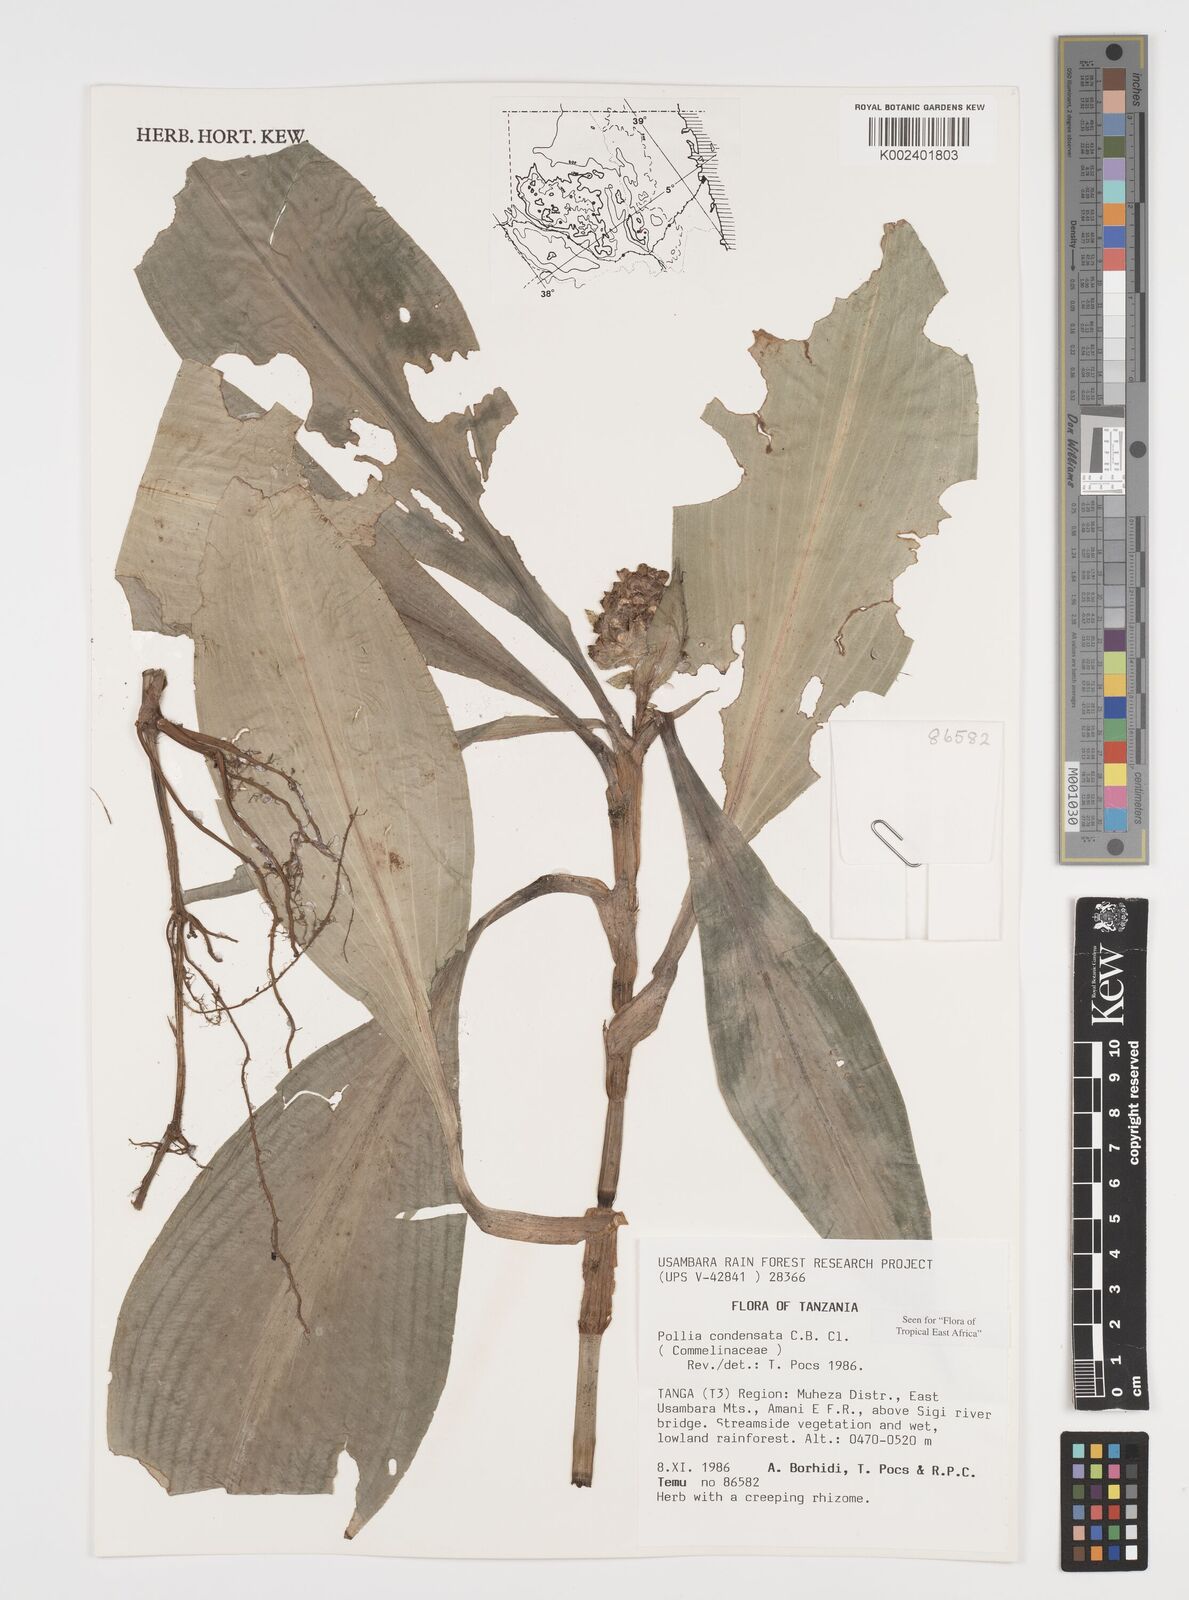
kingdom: Plantae
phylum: Tracheophyta
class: Liliopsida
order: Commelinales
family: Commelinaceae
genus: Pollia
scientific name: Pollia condensata
